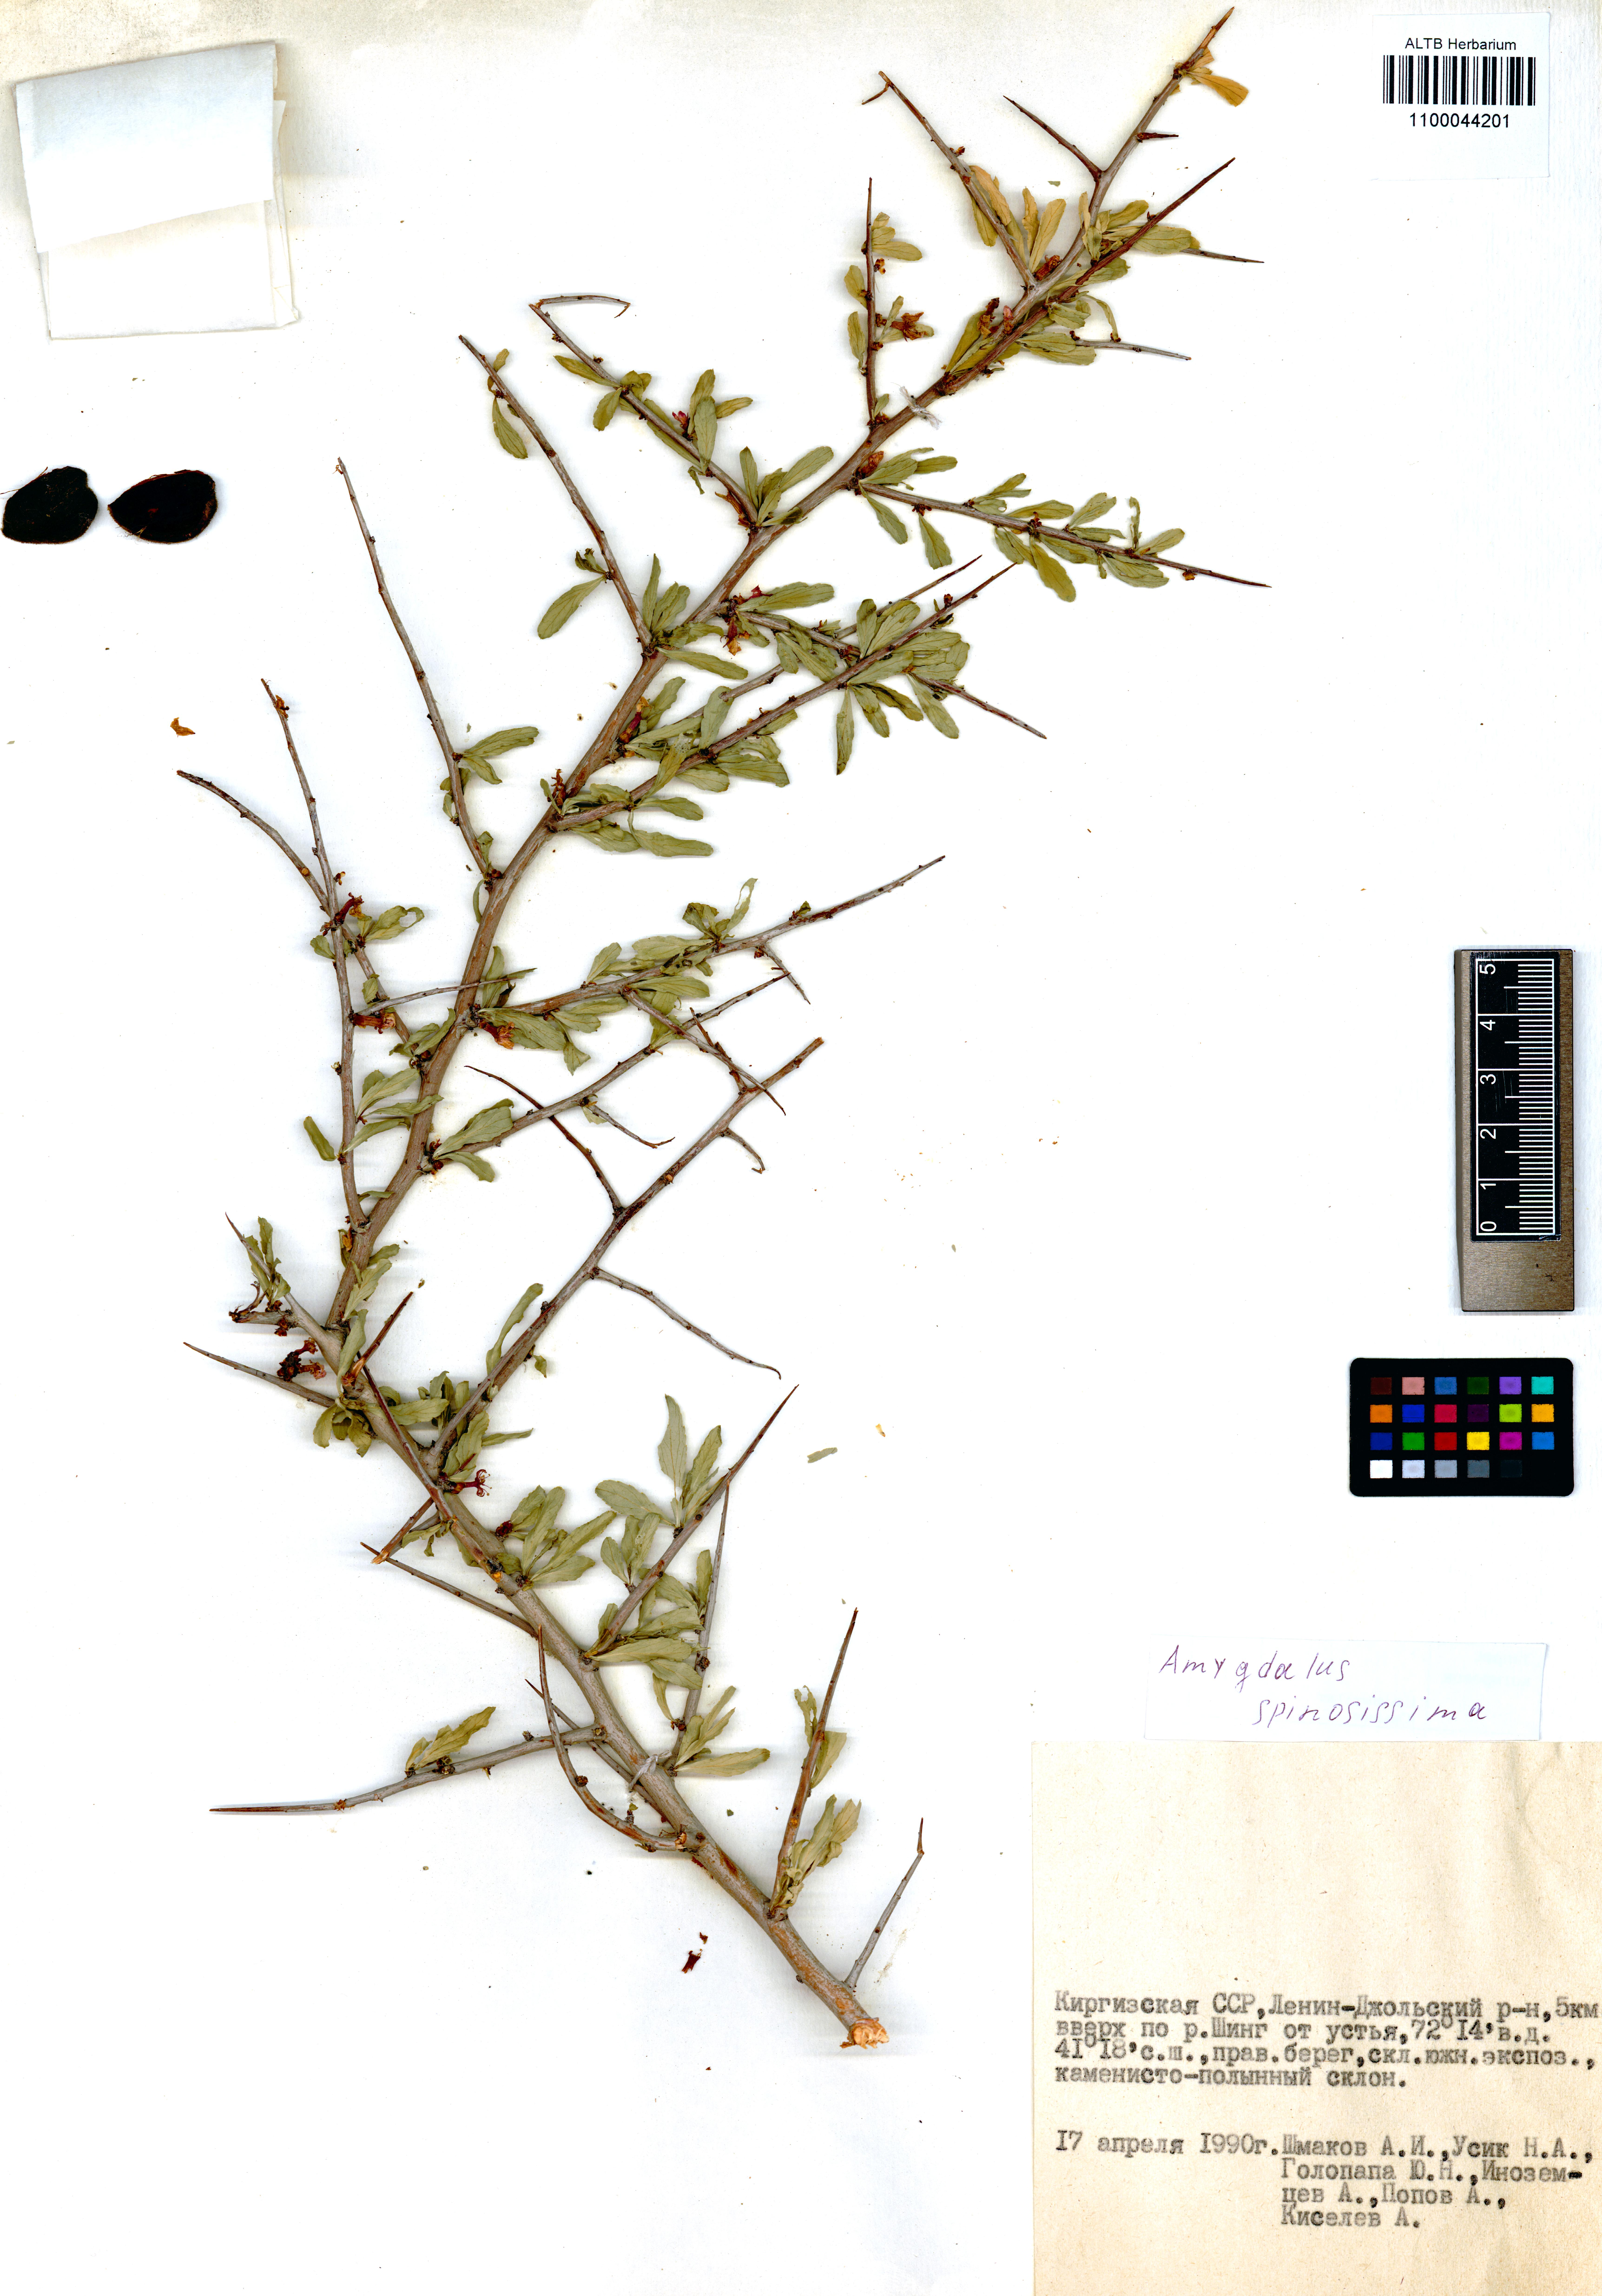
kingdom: Plantae
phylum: Tracheophyta
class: Magnoliopsida
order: Rosales
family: Rosaceae
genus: Prunus
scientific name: Prunus spinosissima
